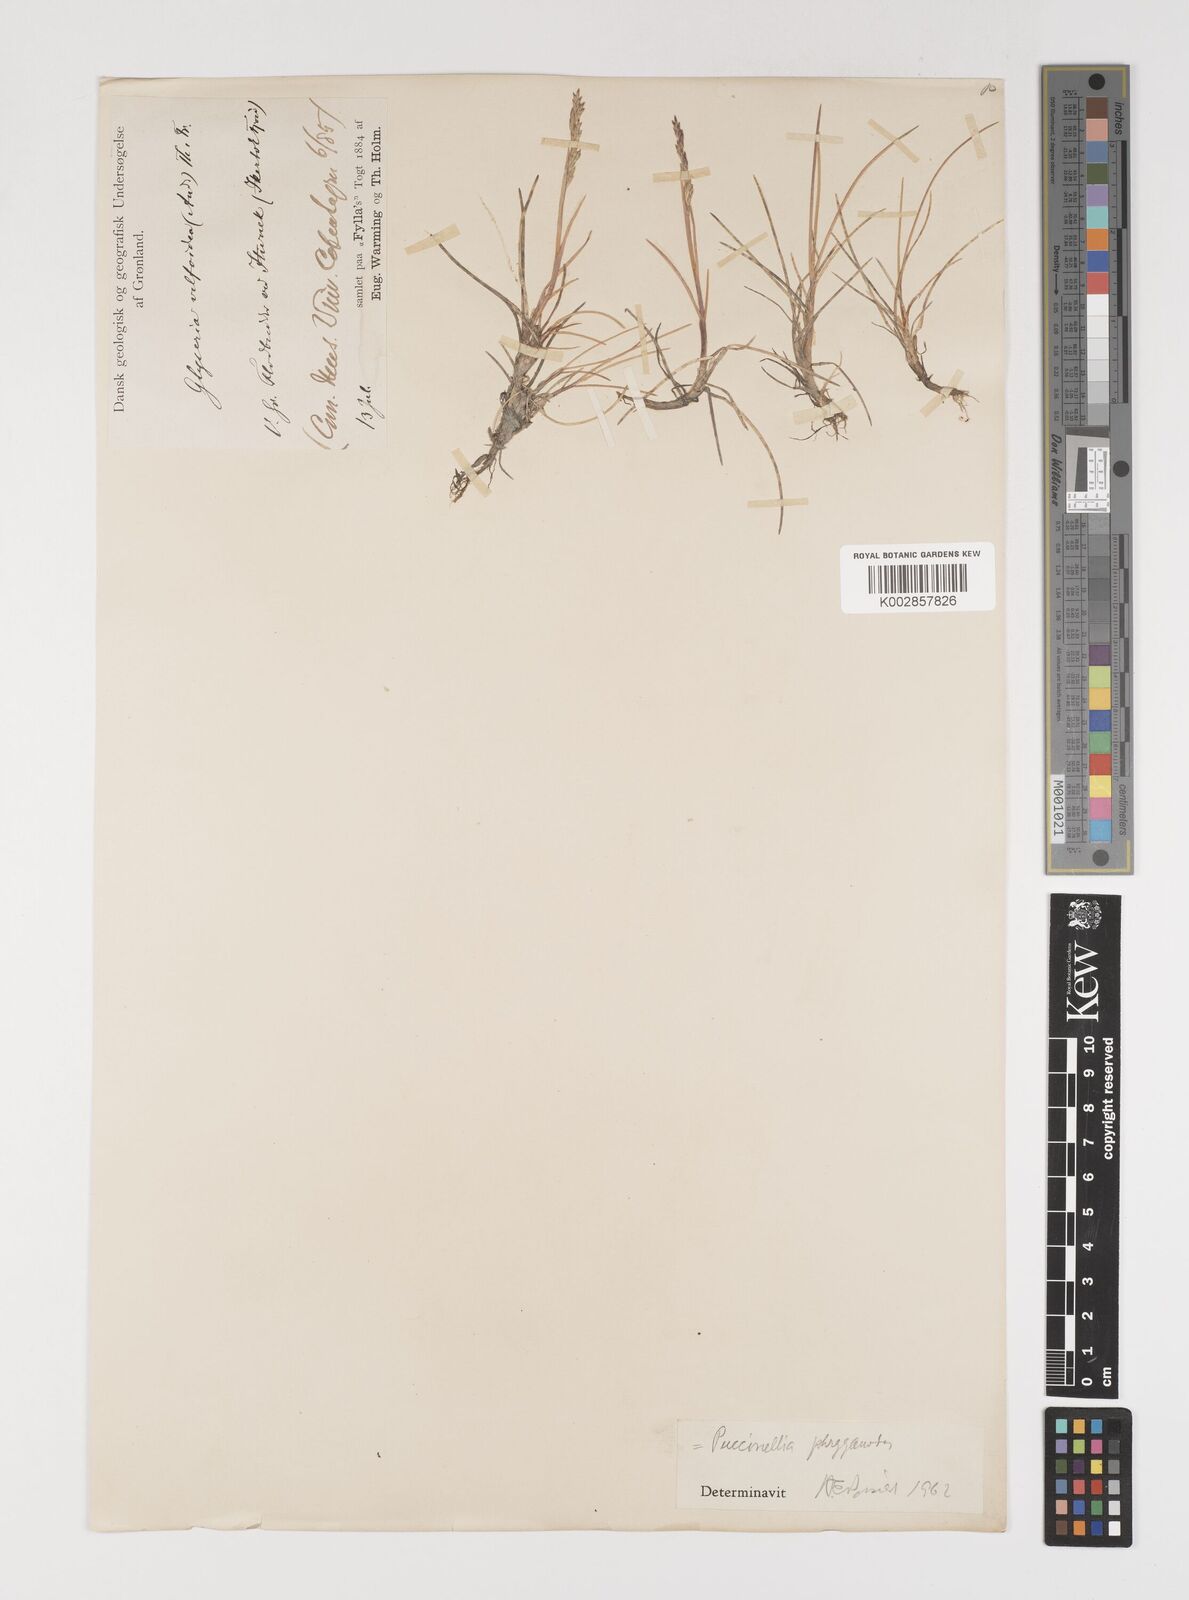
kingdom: Plantae
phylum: Tracheophyta
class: Liliopsida
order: Poales
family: Poaceae
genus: Puccinellia
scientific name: Puccinellia phryganodes
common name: Creeping alkaligrass
